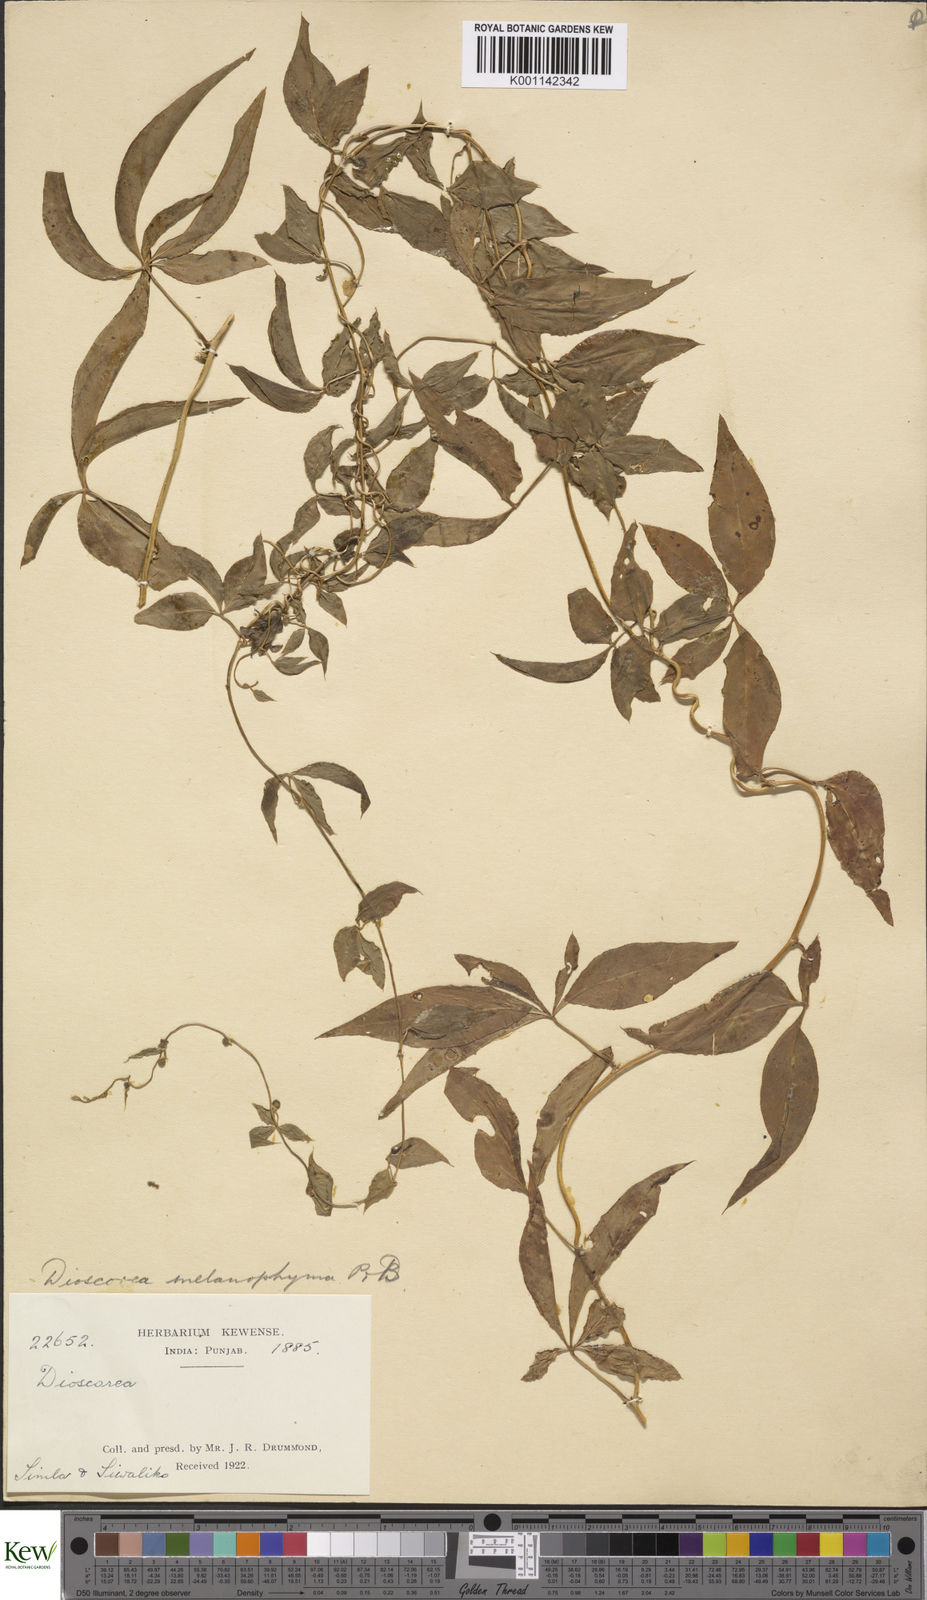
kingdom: Plantae
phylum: Tracheophyta
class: Liliopsida
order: Dioscoreales
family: Dioscoreaceae
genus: Dioscorea
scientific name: Dioscorea melanophyma
